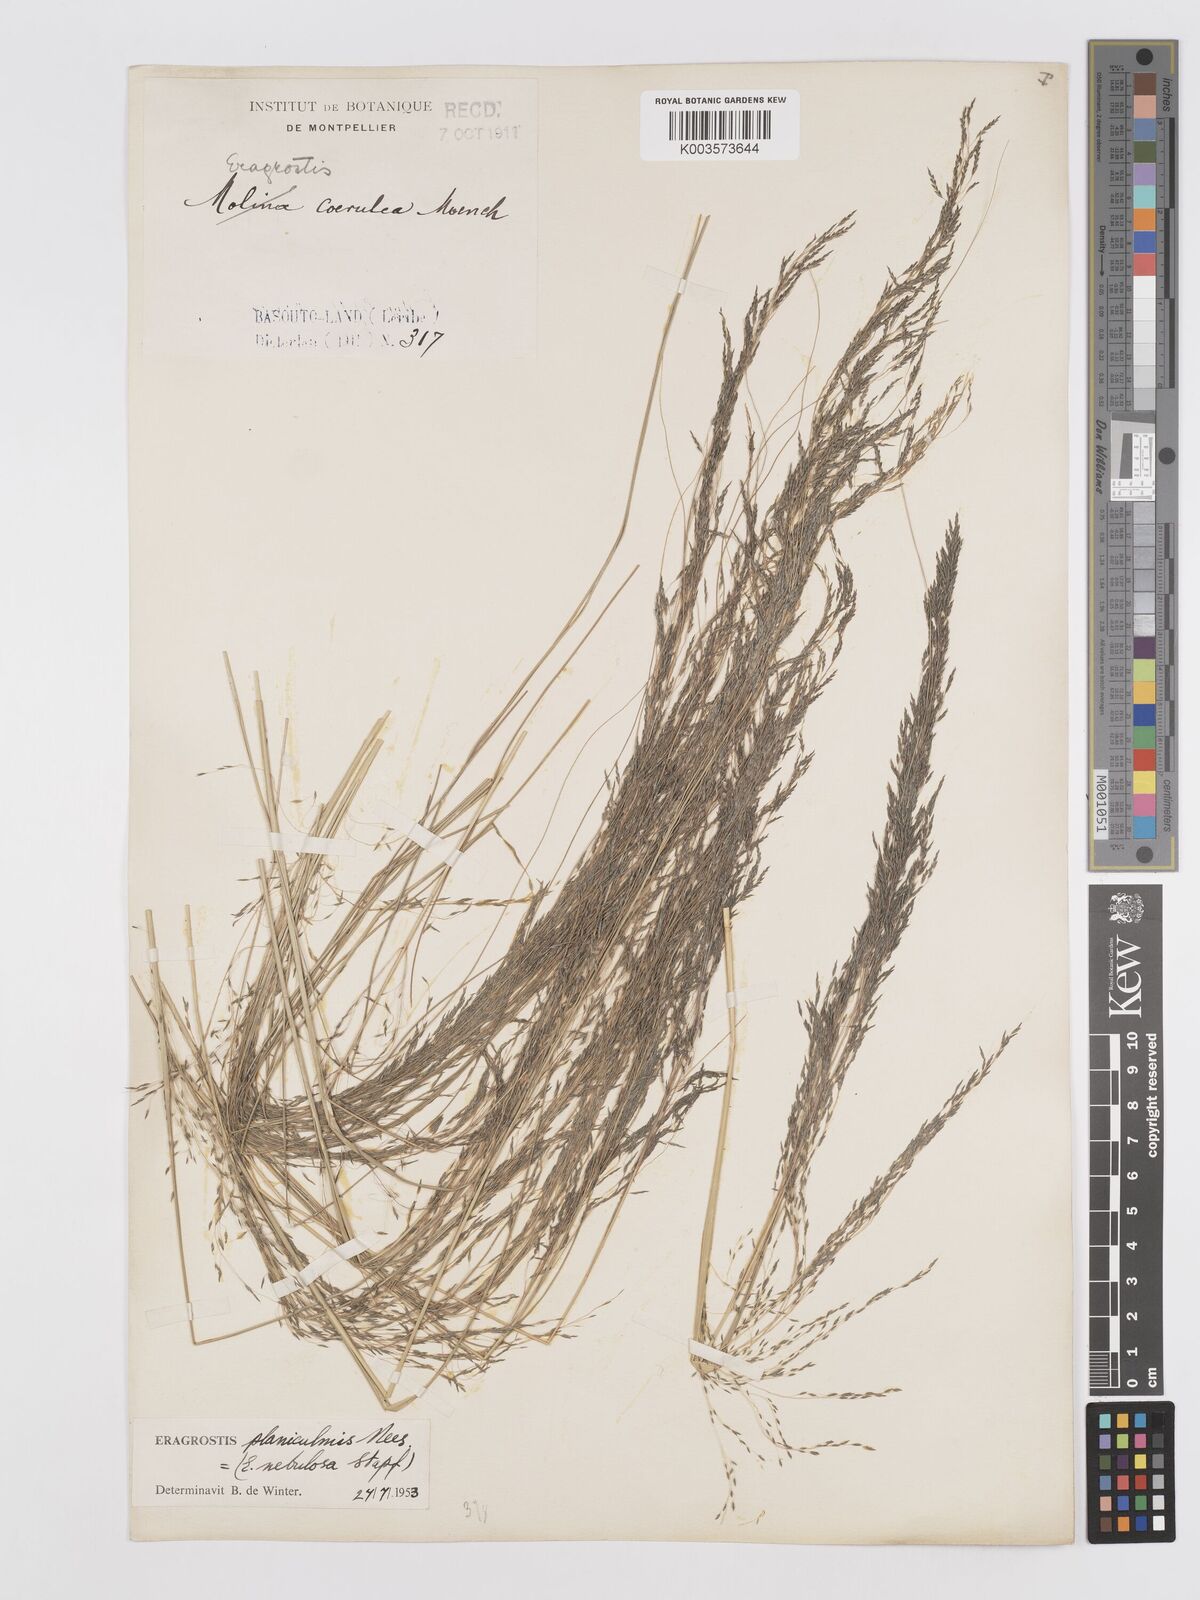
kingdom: Plantae
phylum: Tracheophyta
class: Liliopsida
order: Poales
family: Poaceae
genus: Eragrostis
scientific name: Eragrostis planiculmis
